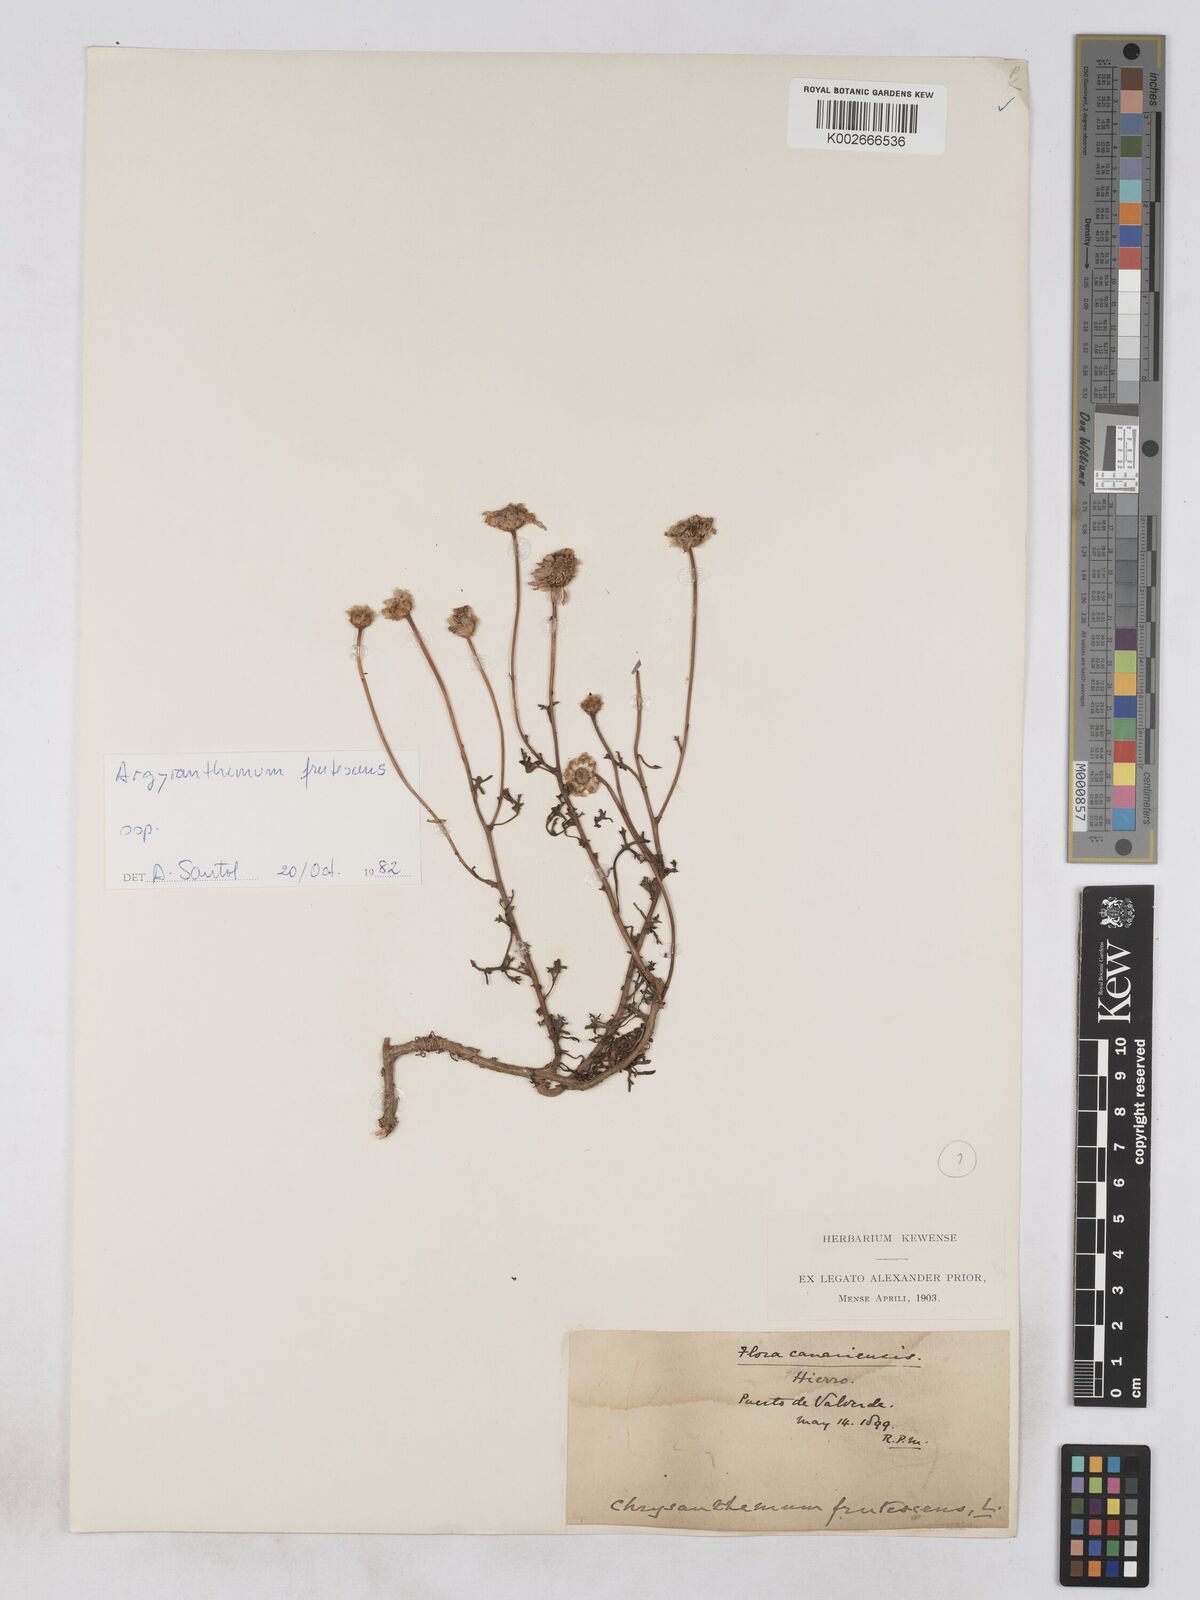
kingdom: Plantae
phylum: Tracheophyta
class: Magnoliopsida
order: Asterales
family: Asteraceae
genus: Argyranthemum
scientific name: Argyranthemum adauctum
